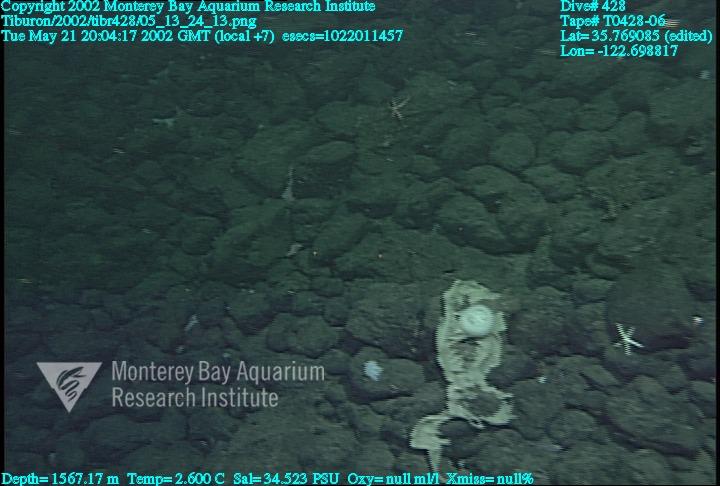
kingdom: Animalia
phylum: Porifera
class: Hexactinellida
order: Sceptrulophora
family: Euretidae
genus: Chonelasma
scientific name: Chonelasma
